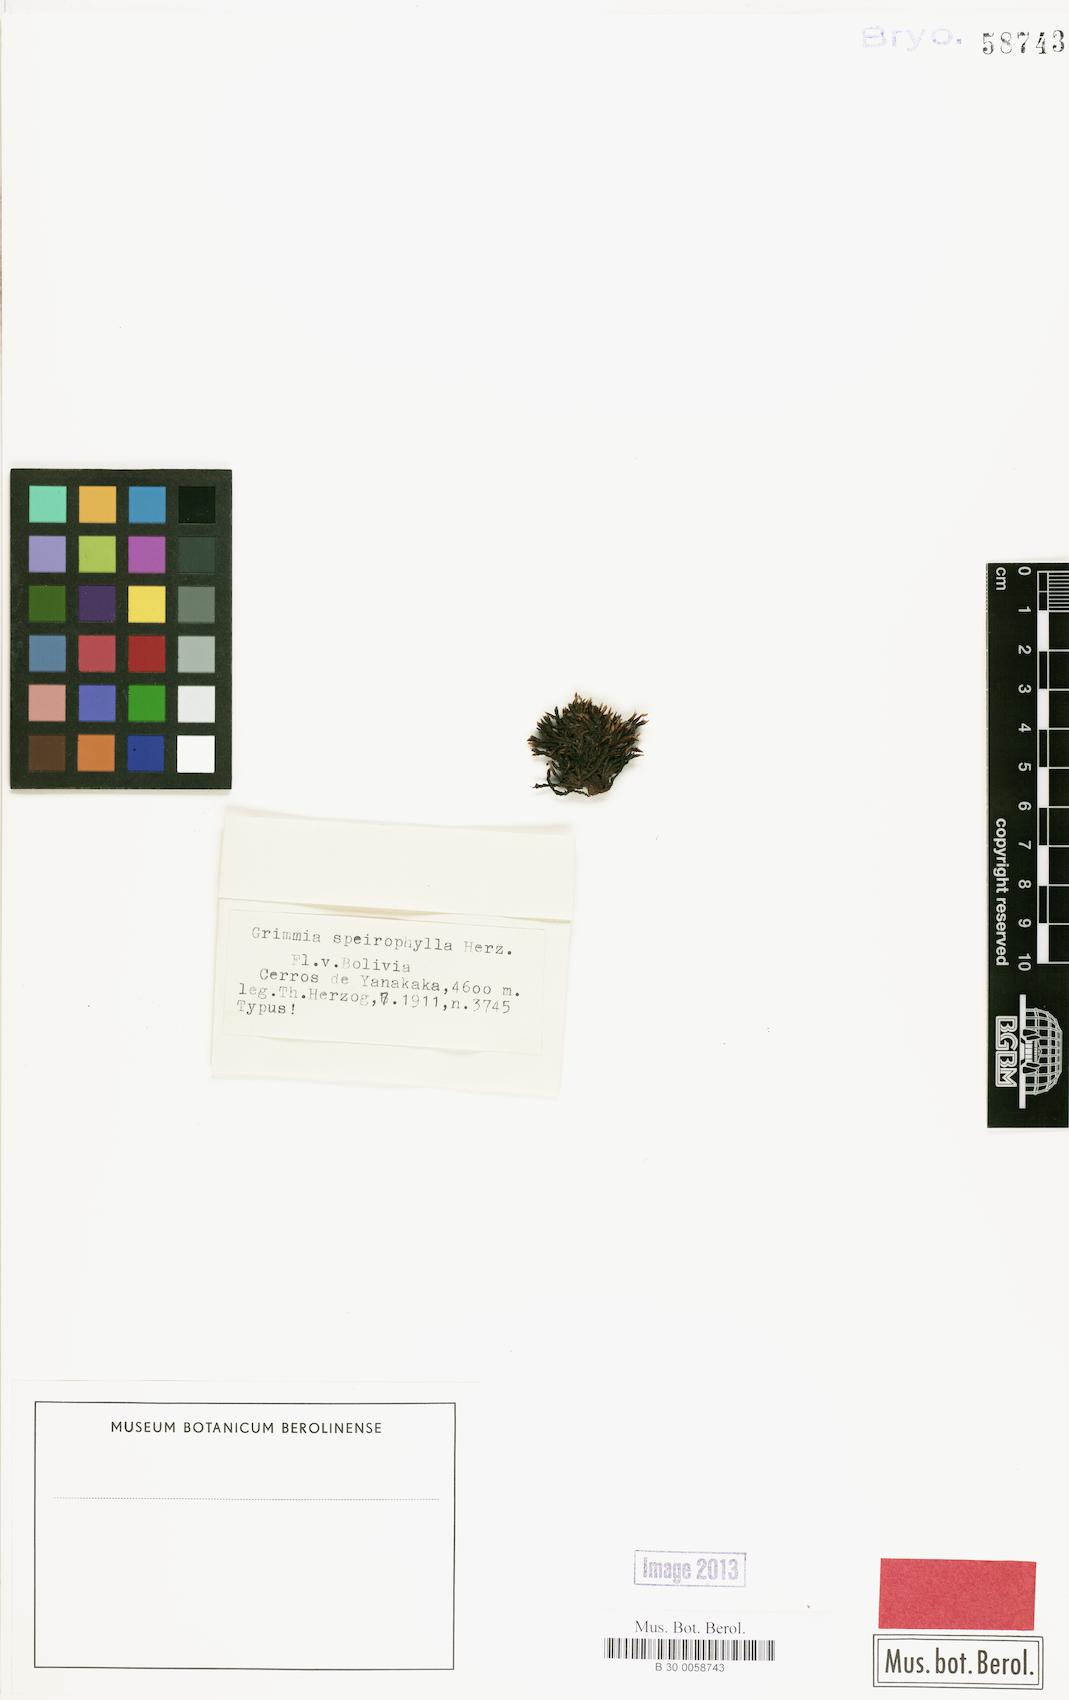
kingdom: Plantae
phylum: Bryophyta
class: Bryopsida
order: Grimmiales
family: Grimmiaceae
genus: Grimmia
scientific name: Grimmia longirostris
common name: Long-beaked grimmia
